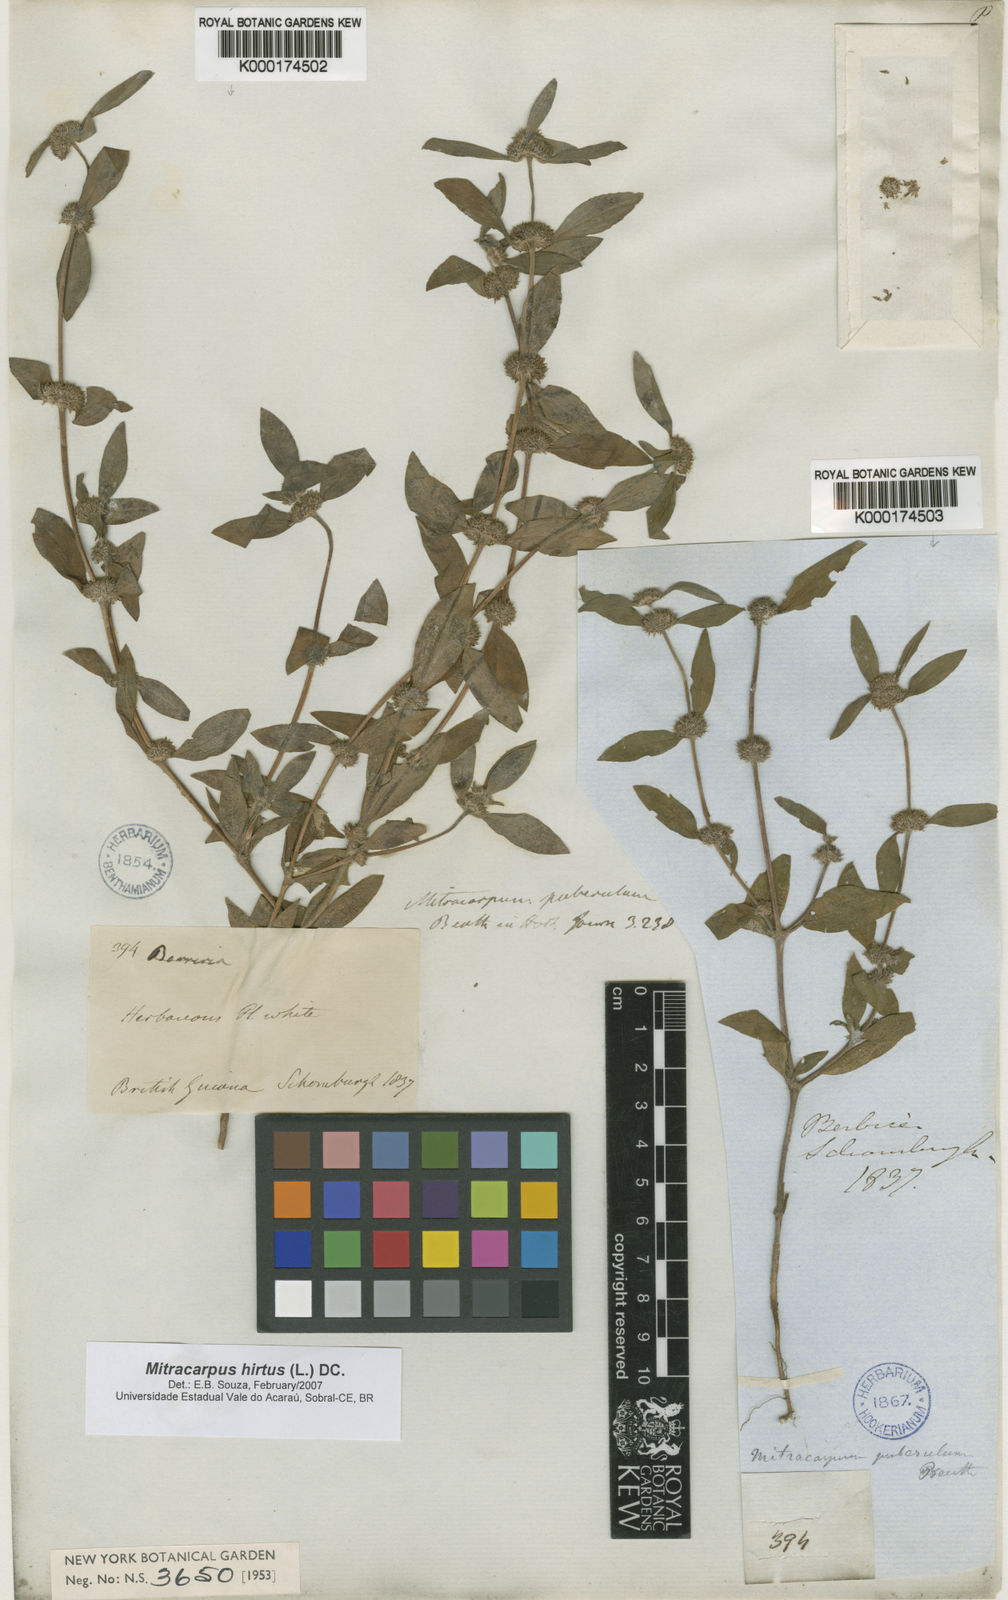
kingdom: Plantae
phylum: Tracheophyta
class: Magnoliopsida
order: Gentianales
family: Rubiaceae
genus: Mitracarpus
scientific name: Mitracarpus hirtus
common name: Tropical girdlepod
